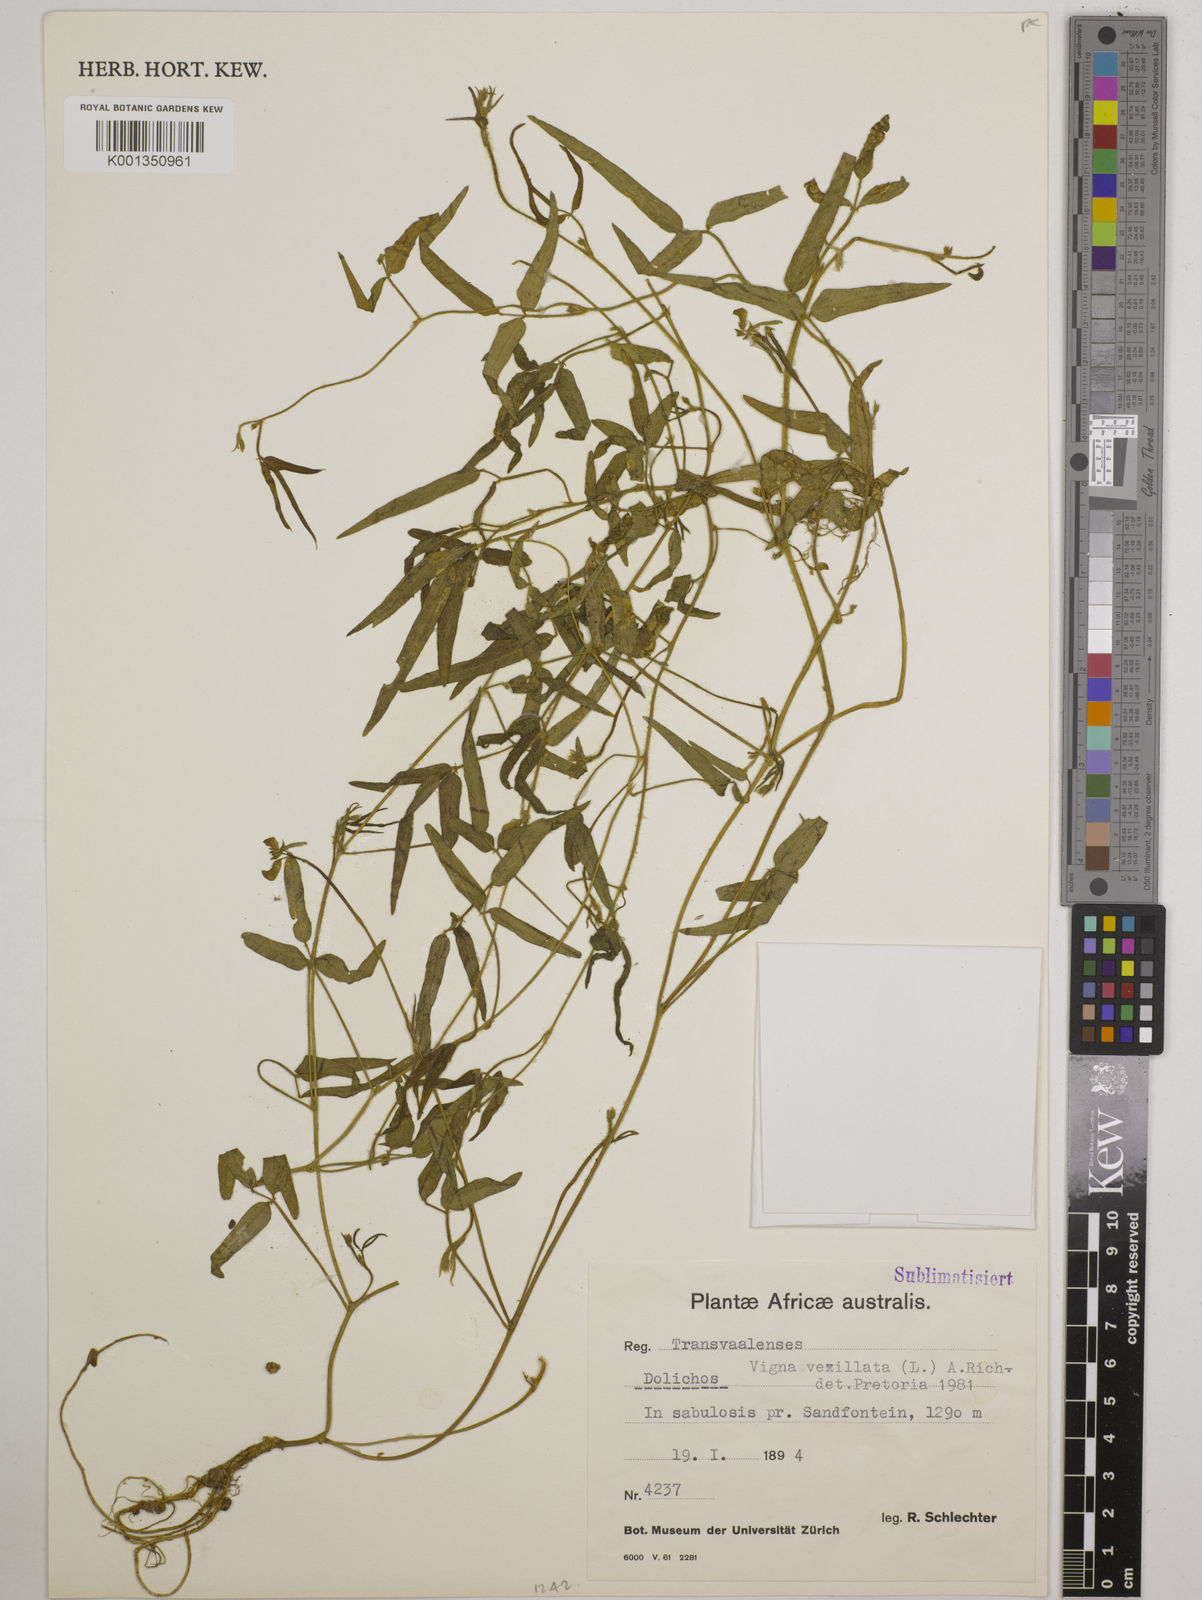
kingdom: Plantae
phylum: Tracheophyta
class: Magnoliopsida
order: Fabales
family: Fabaceae
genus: Dolichos
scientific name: Dolichos
